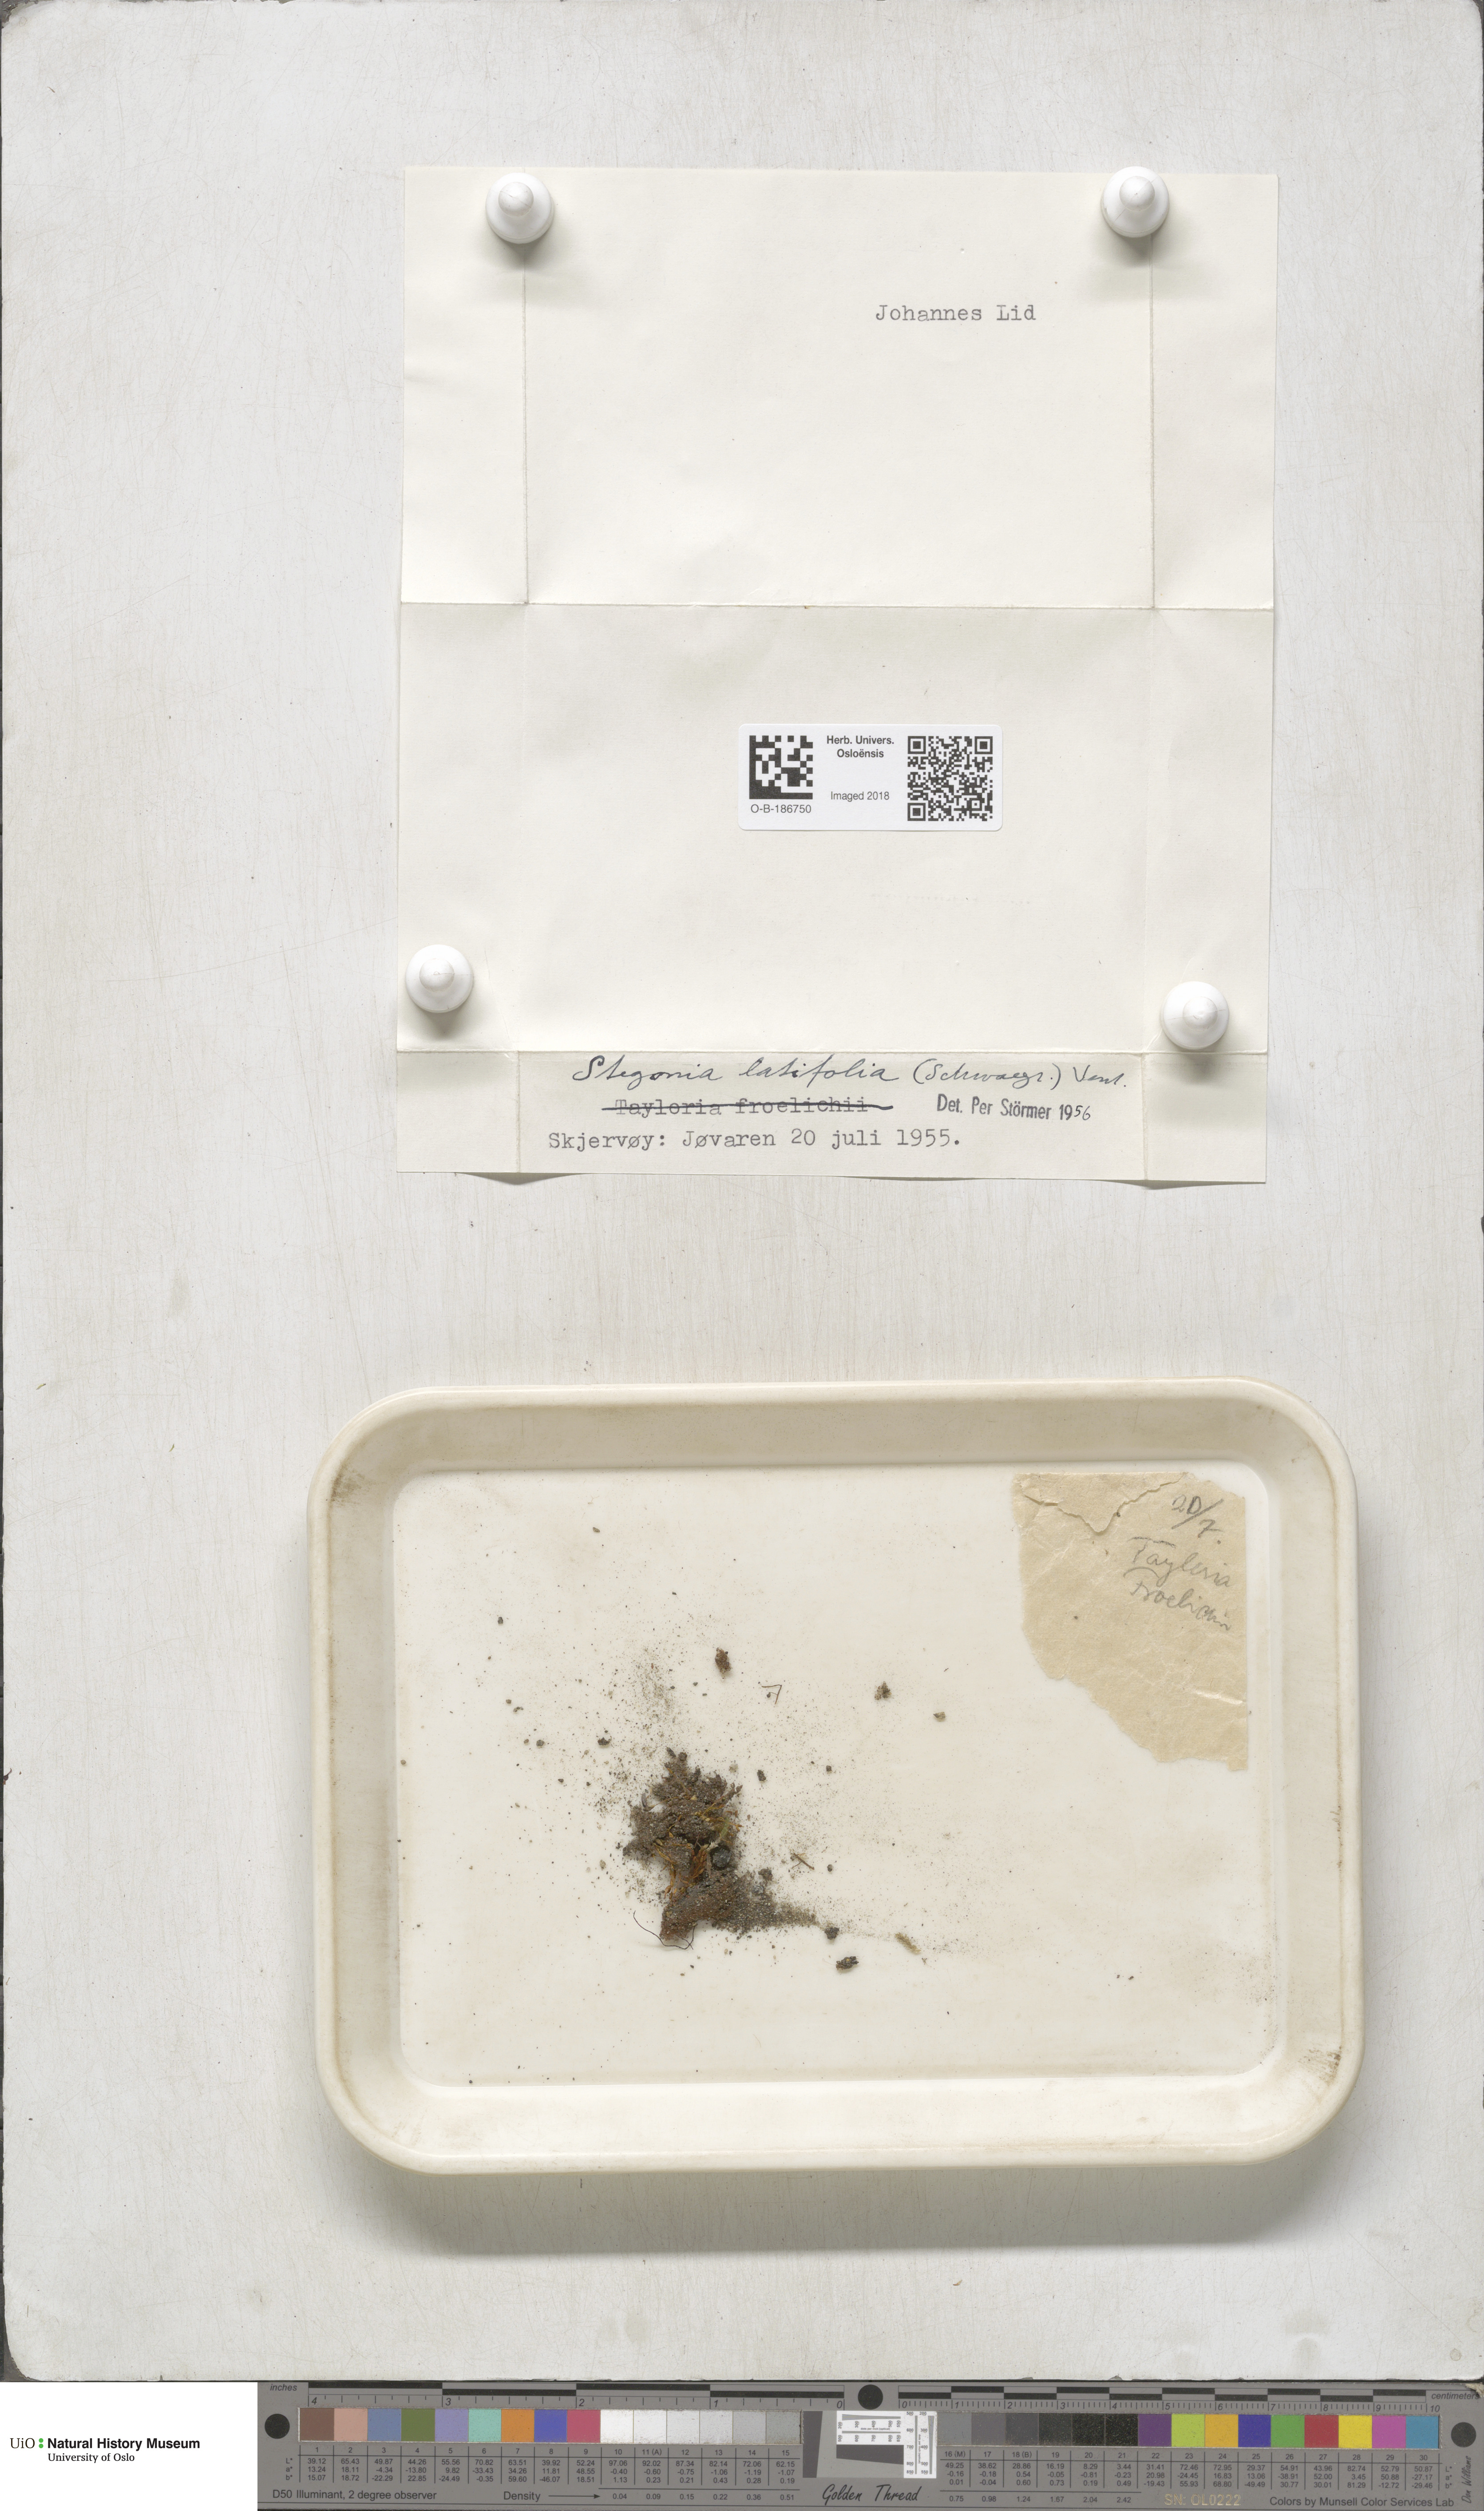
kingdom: Plantae
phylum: Bryophyta
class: Bryopsida
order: Pottiales
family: Pottiaceae
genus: Stegonia
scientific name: Stegonia latifolia
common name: Hood-leaved screw-moss
